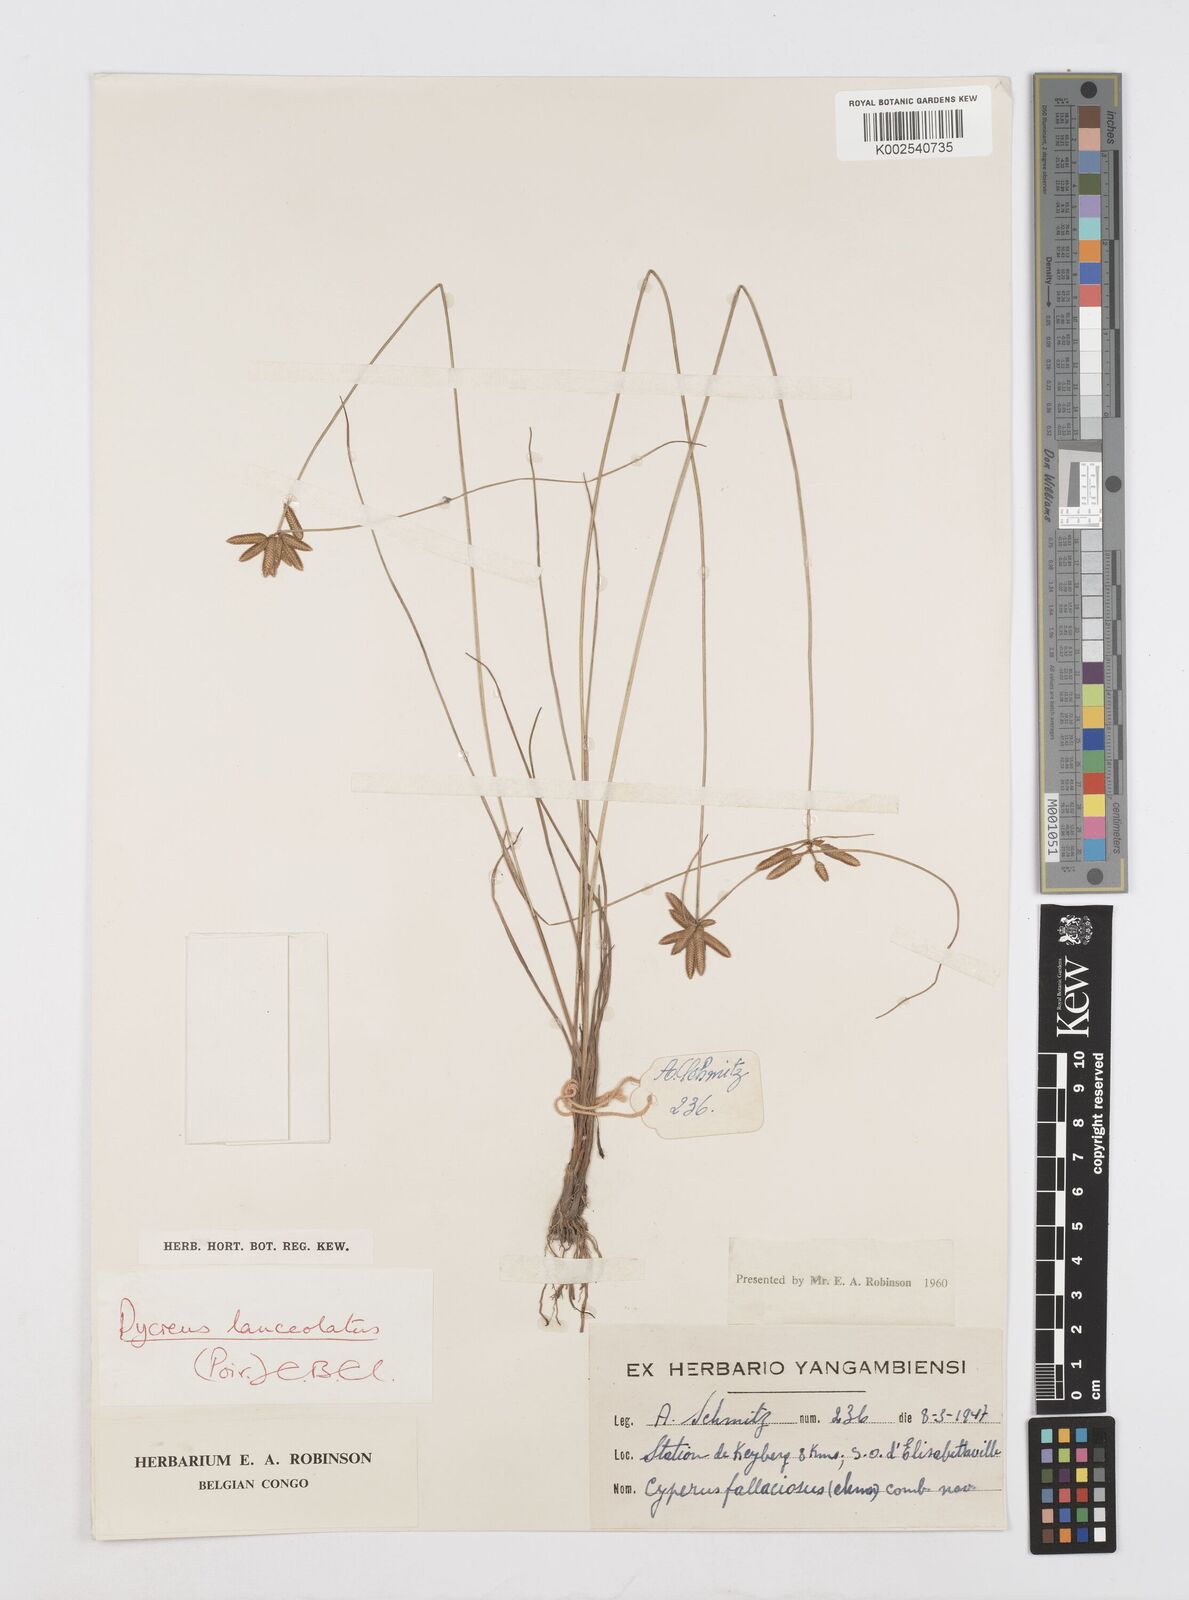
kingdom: Plantae
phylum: Tracheophyta
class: Liliopsida
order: Poales
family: Cyperaceae
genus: Cyperus
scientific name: Cyperus
